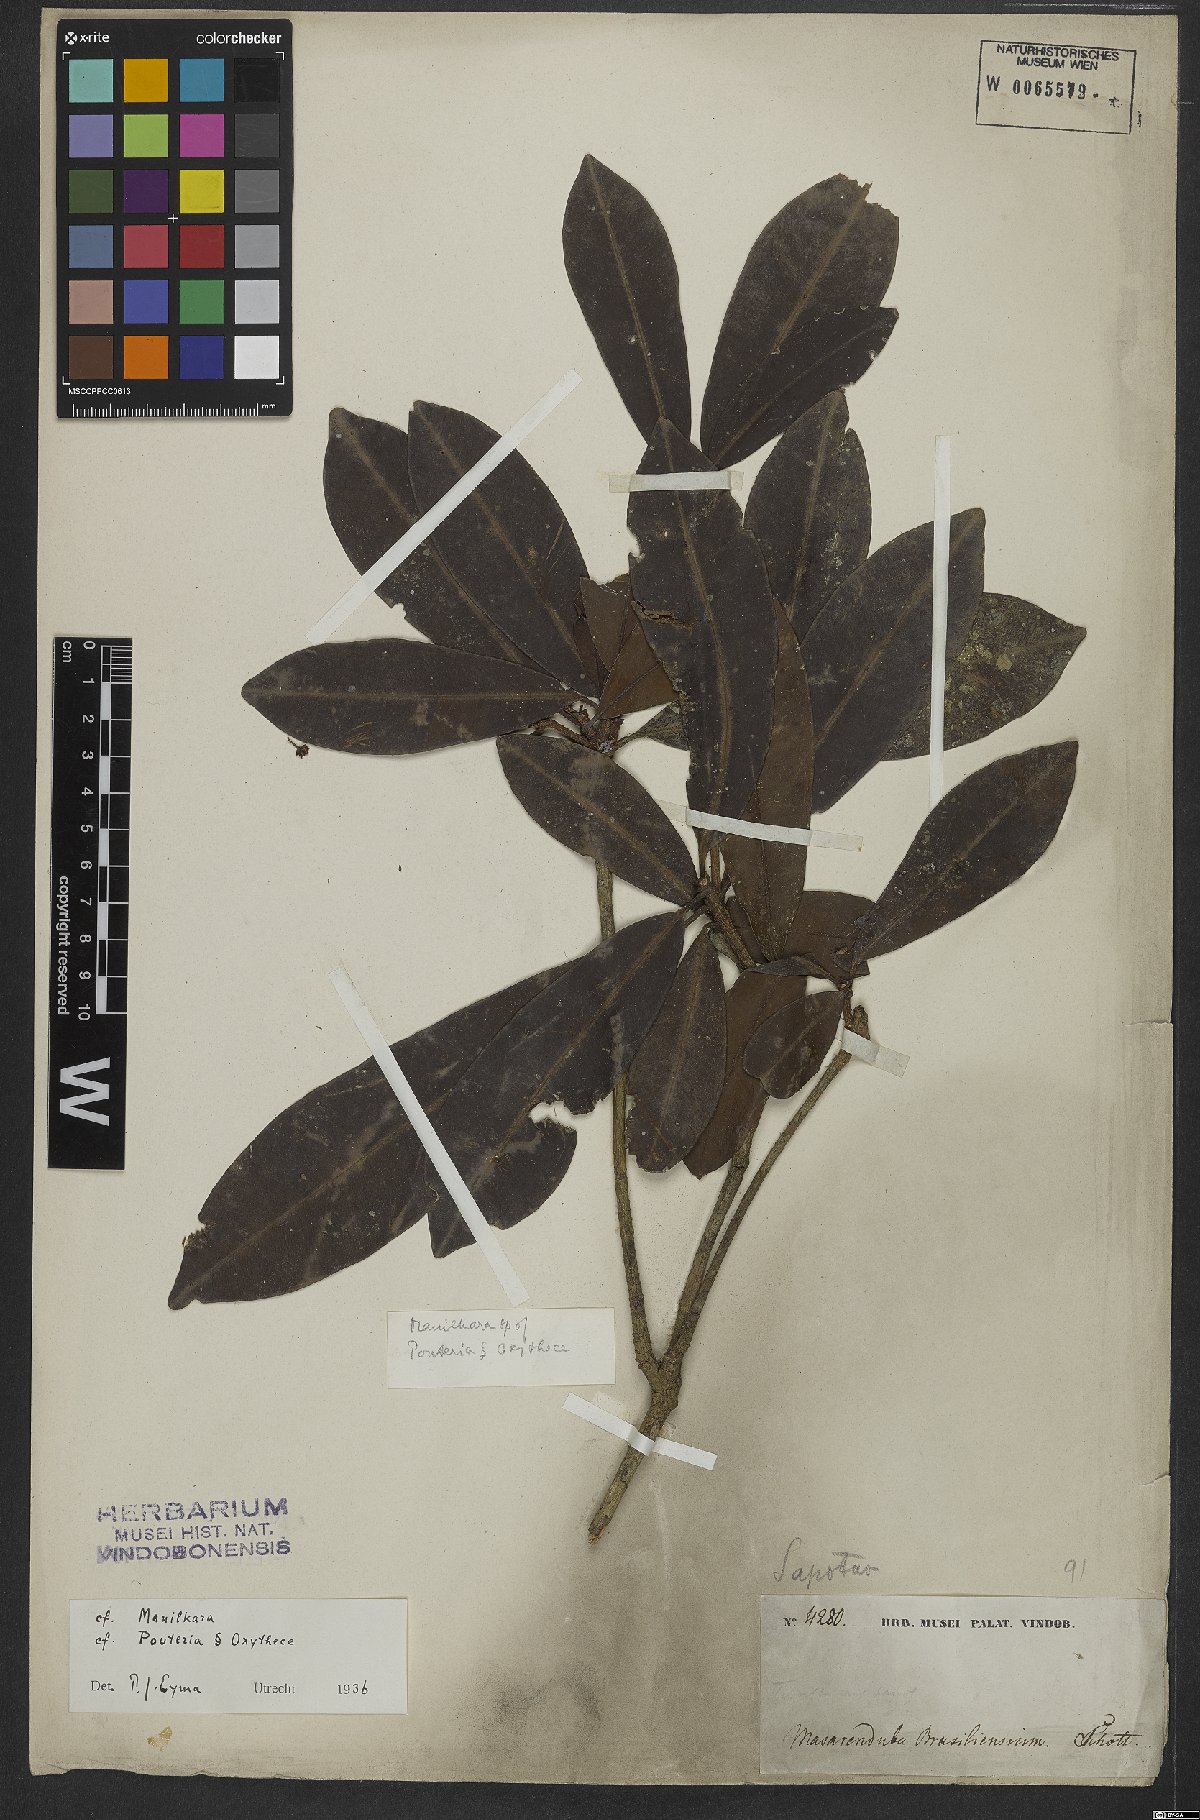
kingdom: Plantae
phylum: Tracheophyta
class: Magnoliopsida
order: Ericales
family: Sapotaceae
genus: Pouteria
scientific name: Pouteria
